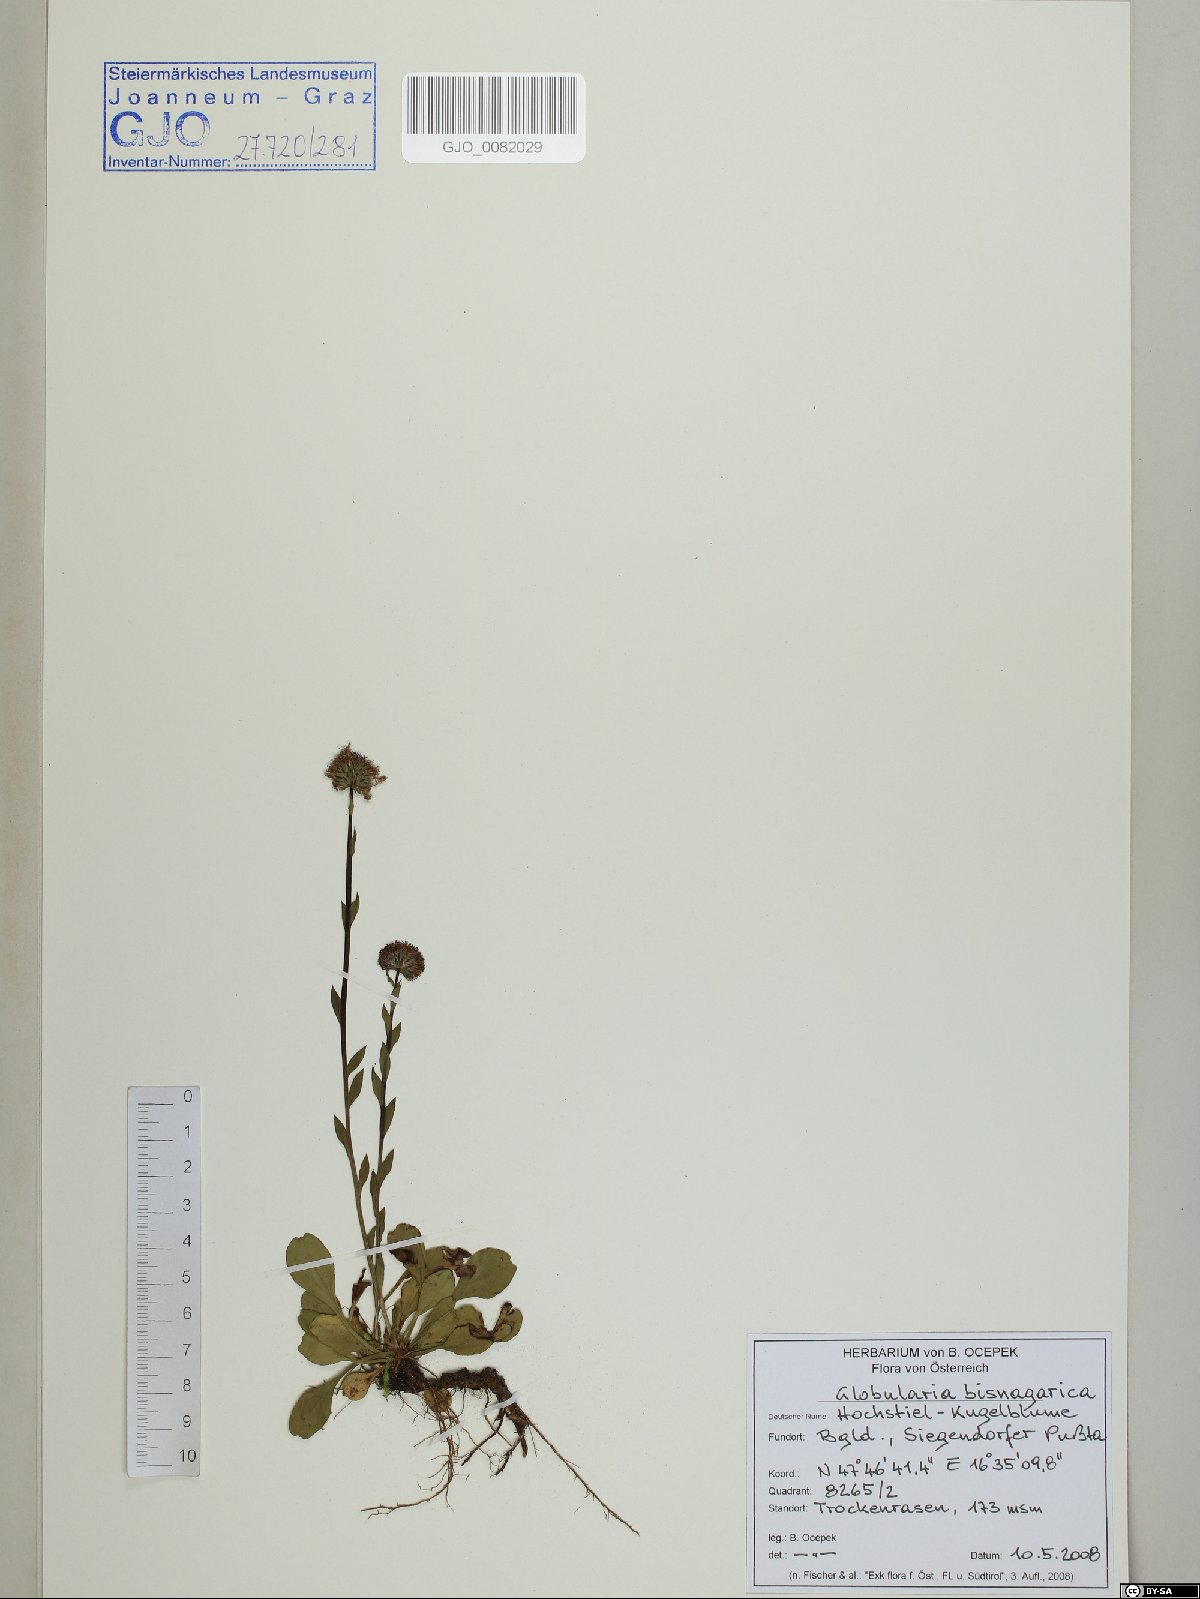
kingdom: Plantae
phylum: Tracheophyta
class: Magnoliopsida
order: Lamiales
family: Plantaginaceae
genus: Globularia
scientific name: Globularia bisnagarica
